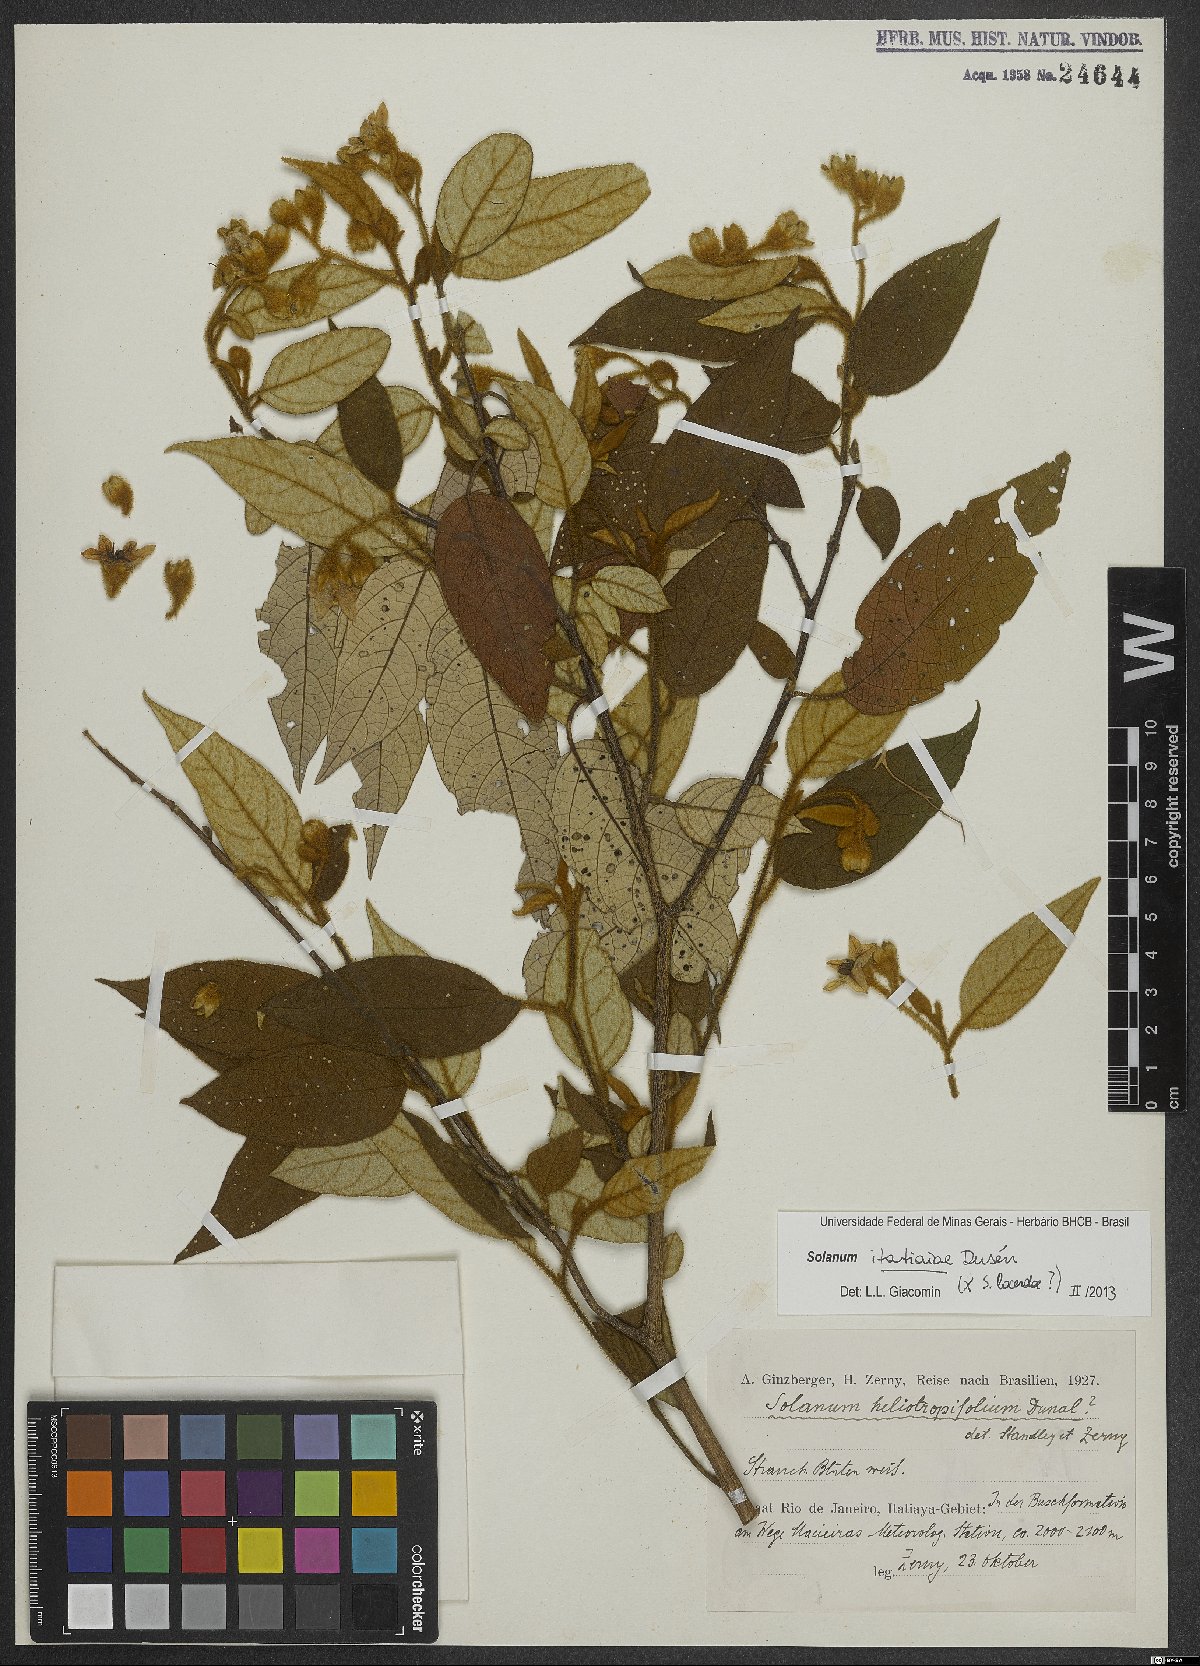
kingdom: Plantae
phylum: Tracheophyta
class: Magnoliopsida
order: Solanales
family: Solanaceae
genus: Solanum
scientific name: Solanum itatiaiae
